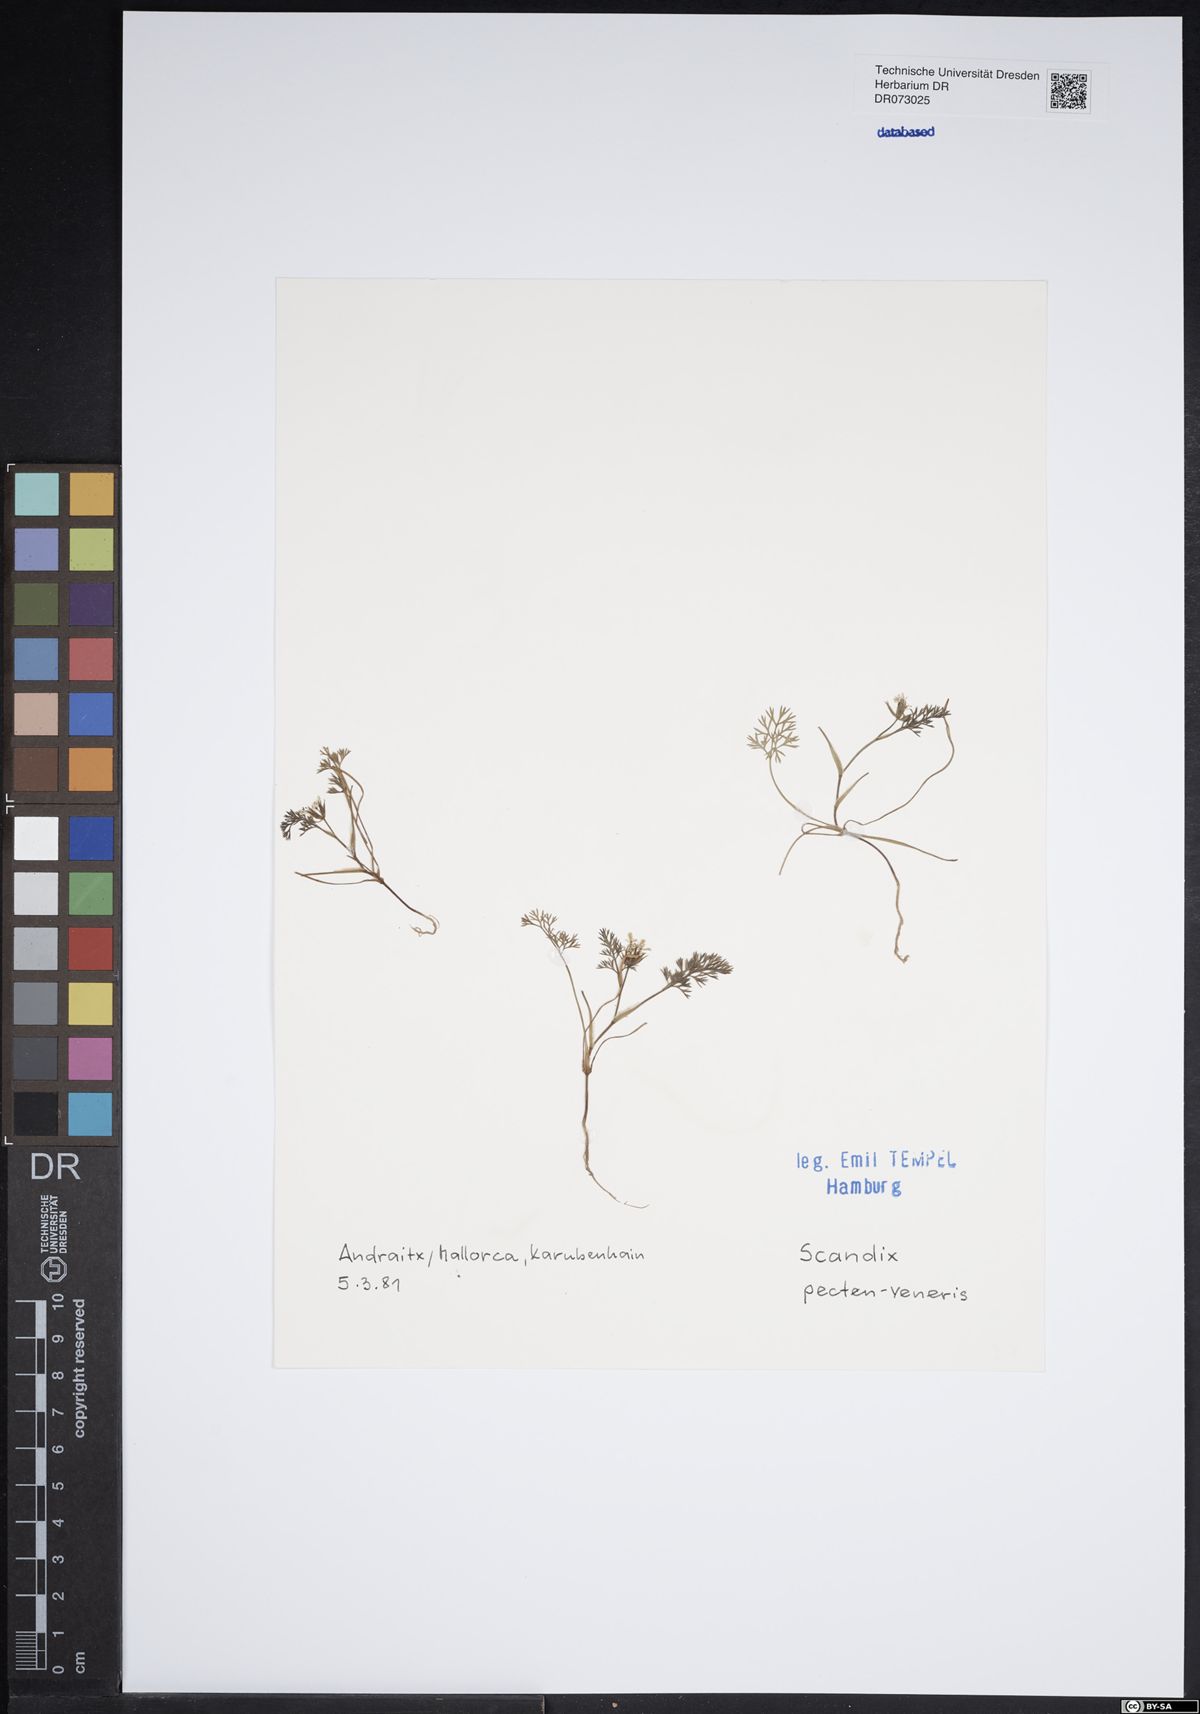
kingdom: Plantae
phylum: Tracheophyta
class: Magnoliopsida
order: Apiales
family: Apiaceae
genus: Scandix
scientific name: Scandix pecten-veneris
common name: Shepherd's-needle
